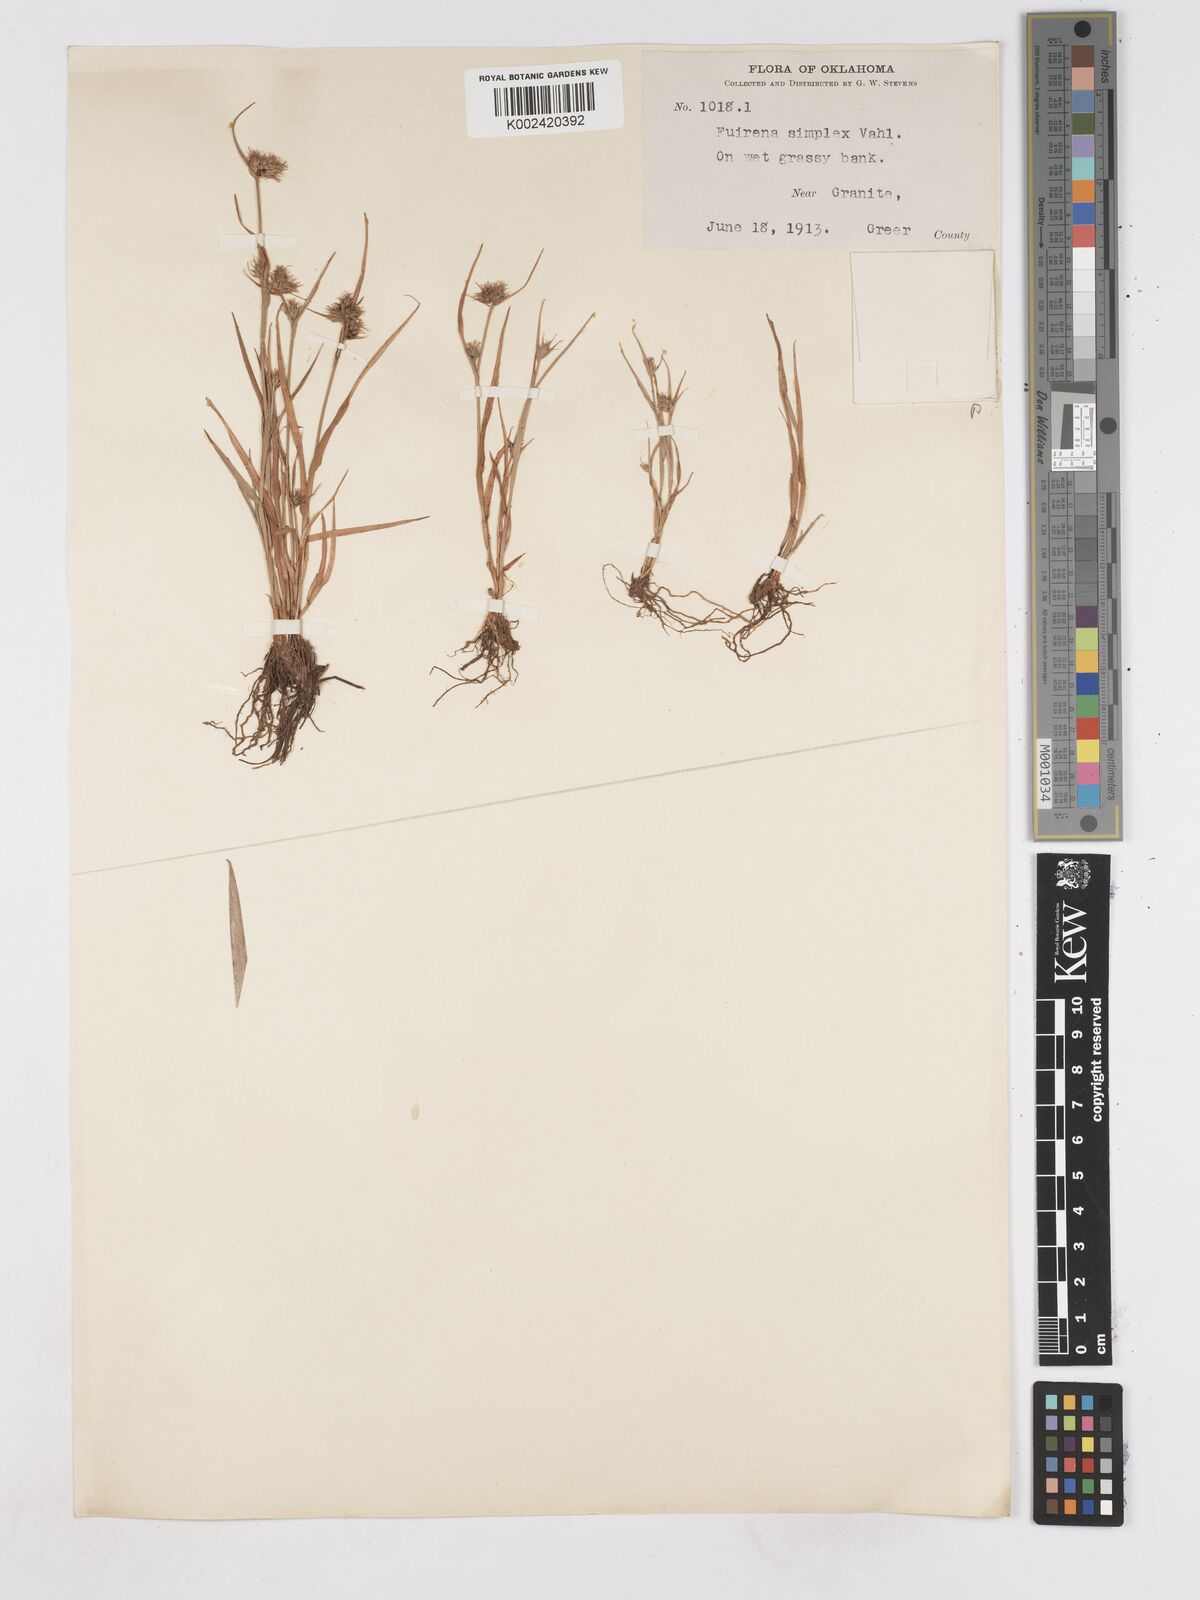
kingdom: Plantae
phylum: Tracheophyta
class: Liliopsida
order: Poales
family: Cyperaceae
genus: Fuirena
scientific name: Fuirena simplex
